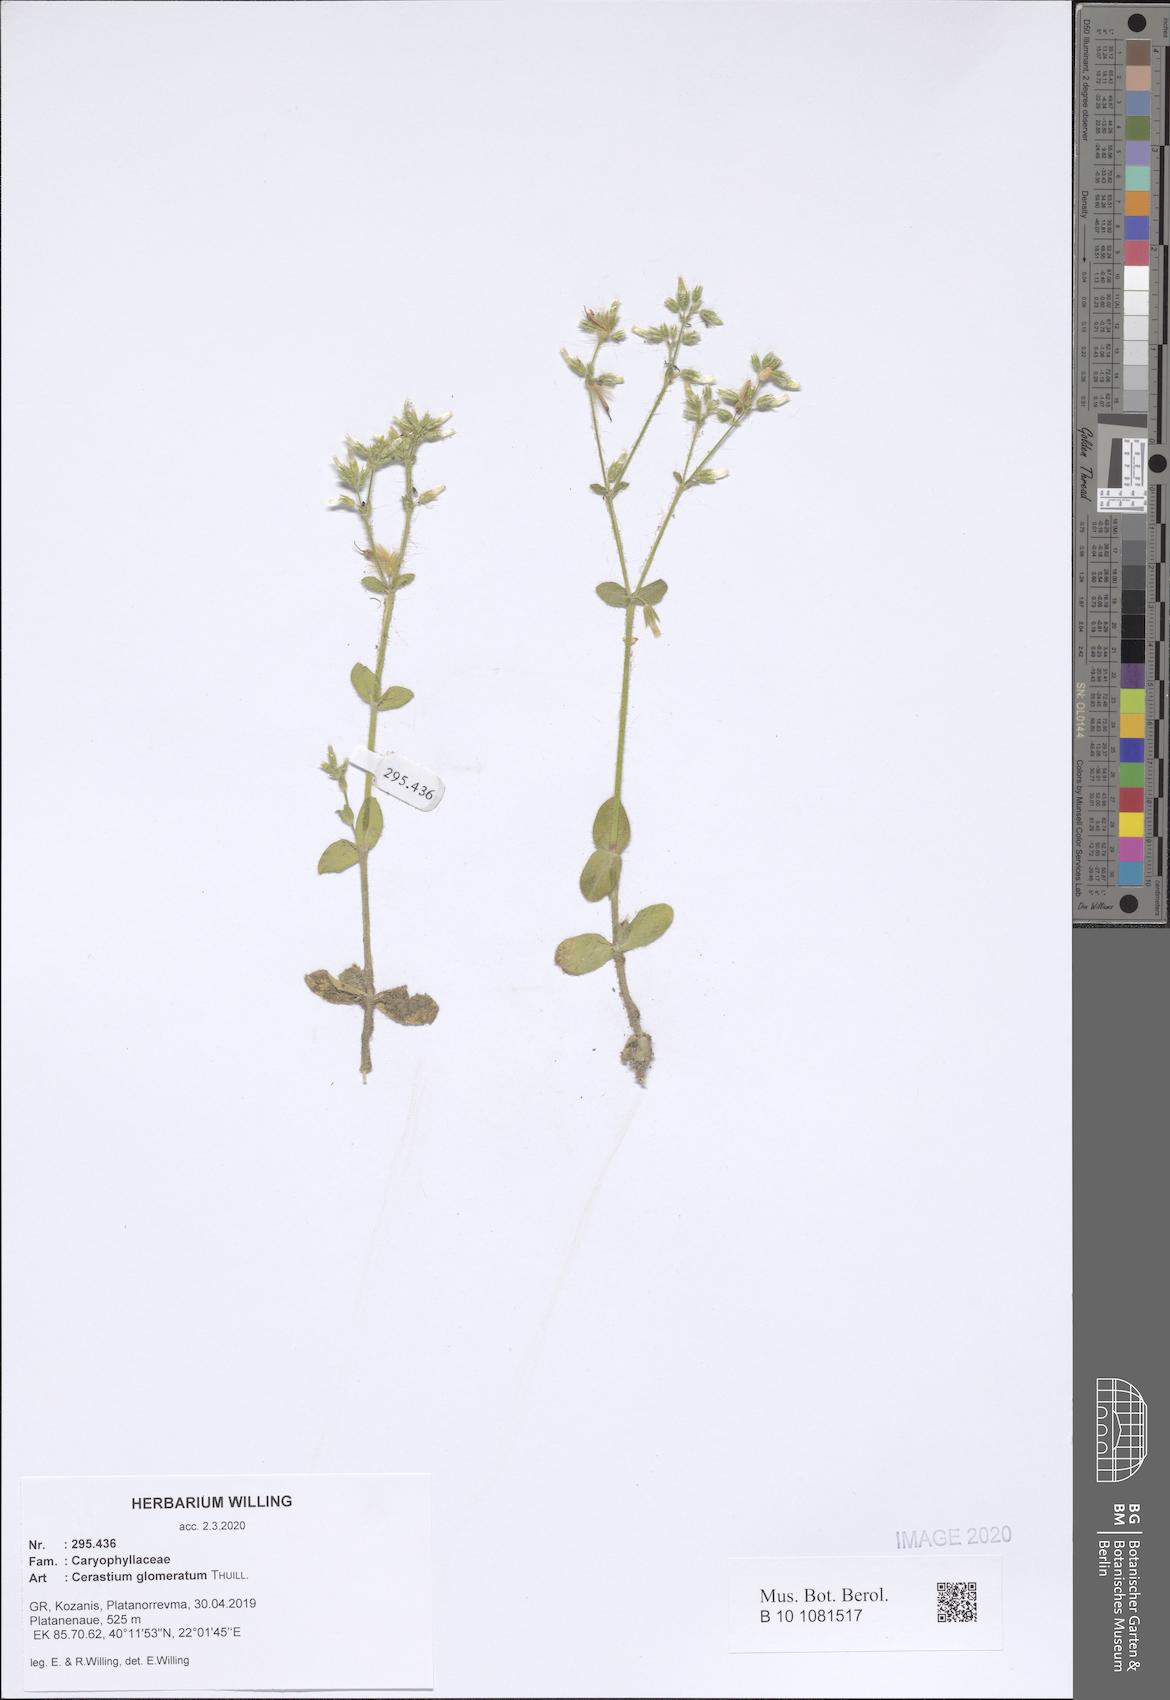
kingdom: Plantae
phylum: Tracheophyta
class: Magnoliopsida
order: Caryophyllales
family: Caryophyllaceae
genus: Cerastium
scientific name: Cerastium glomeratum
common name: Sticky chickweed
